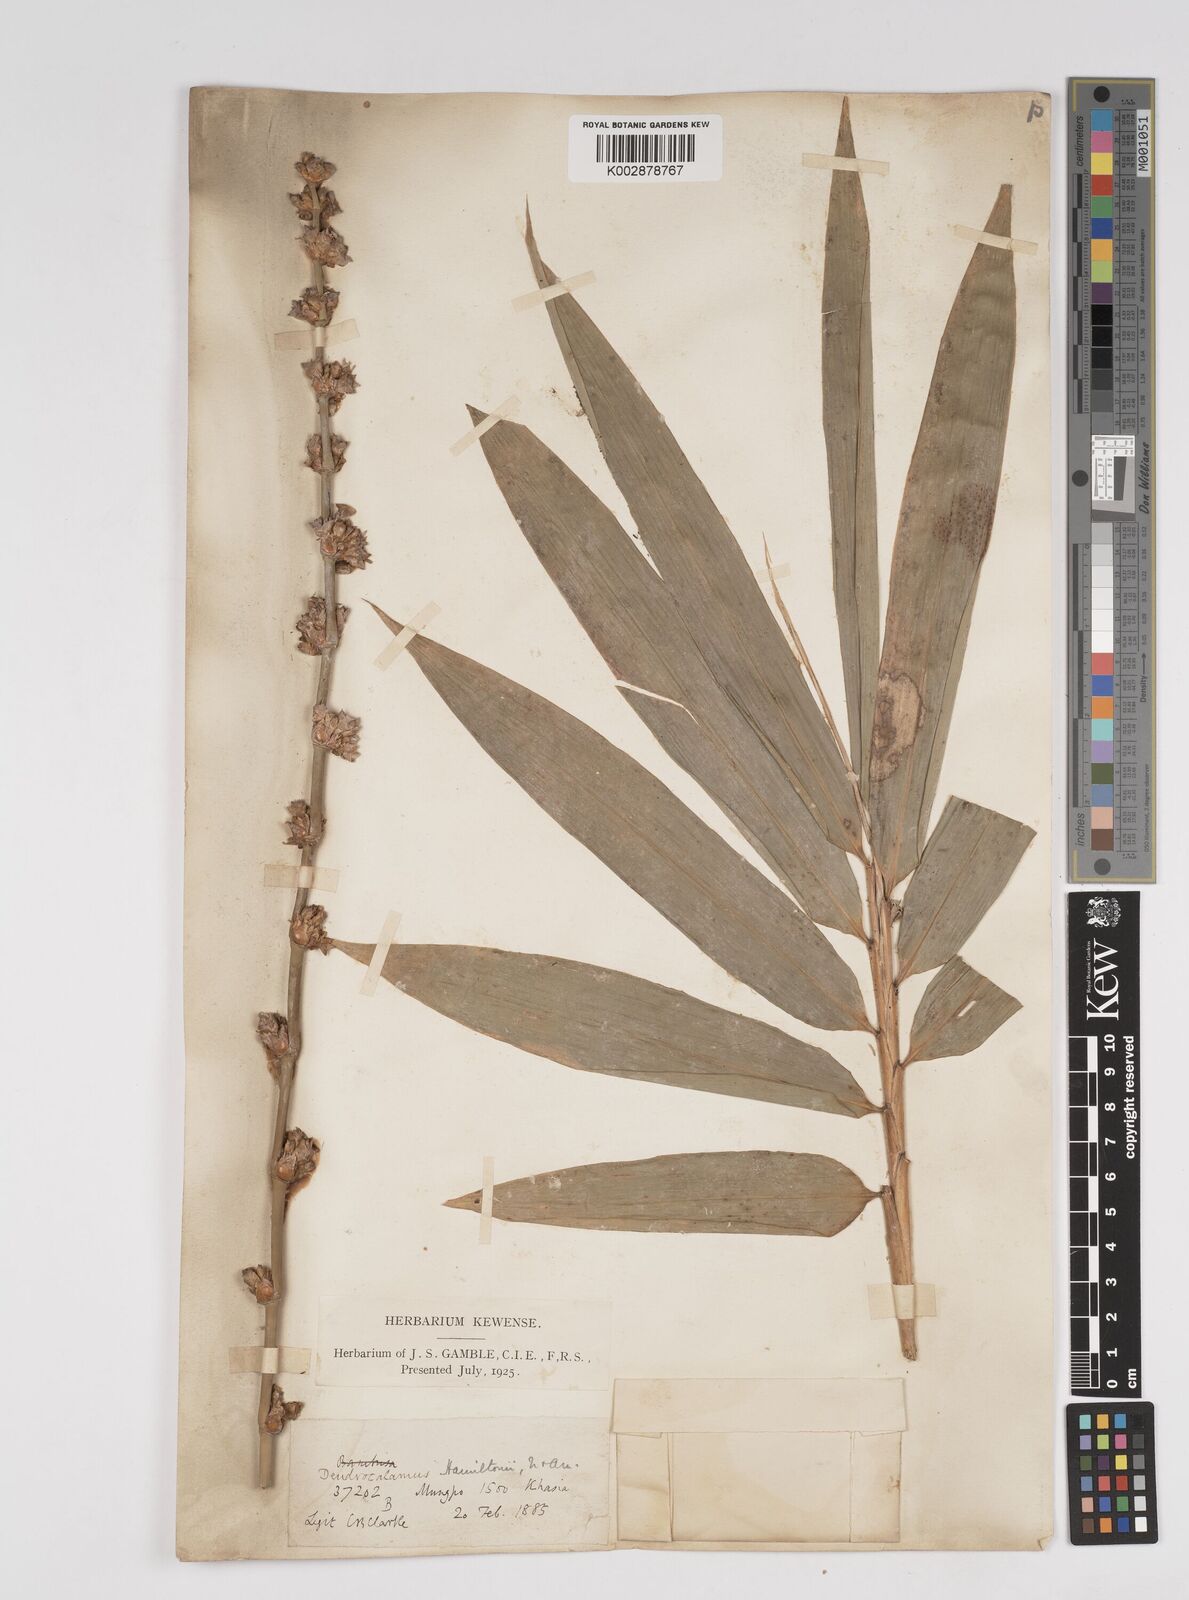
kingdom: Plantae
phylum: Tracheophyta
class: Liliopsida
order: Poales
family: Poaceae
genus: Dendrocalamus
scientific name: Dendrocalamus hamiltonii
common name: Tama bamboo
